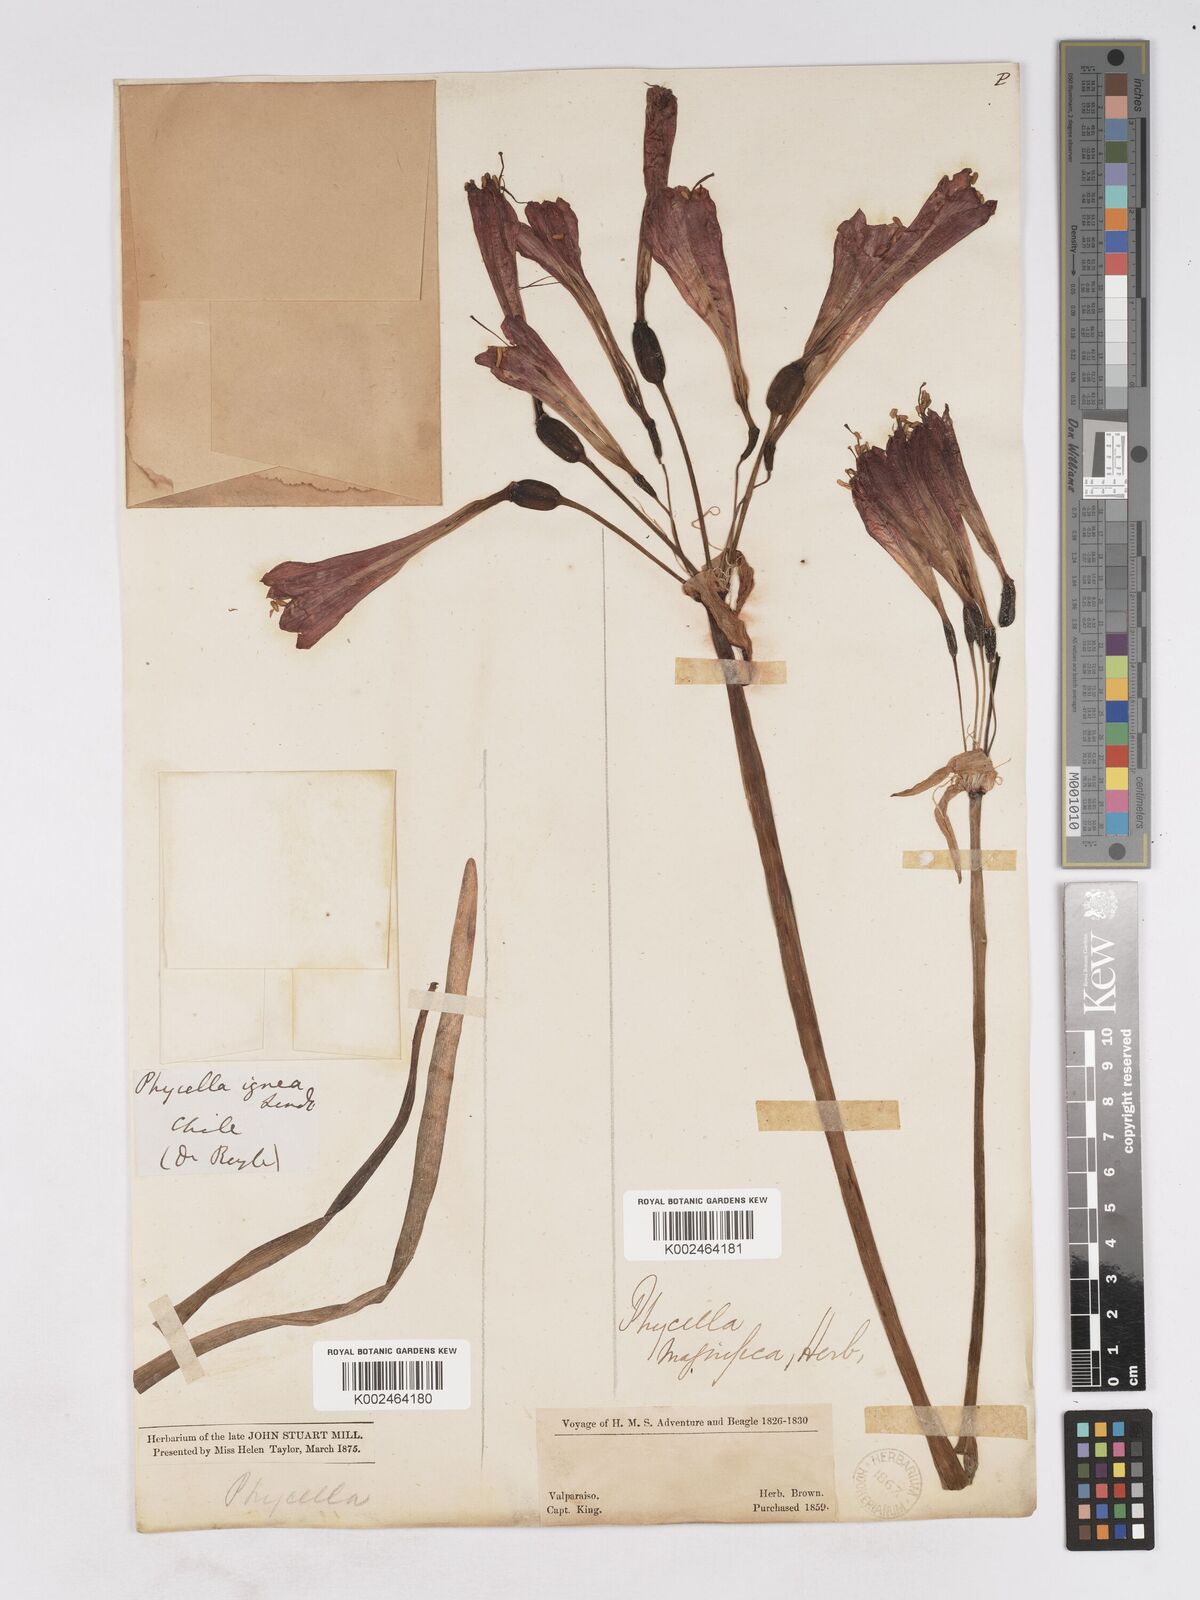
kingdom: Plantae
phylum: Tracheophyta
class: Liliopsida
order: Asparagales
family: Amaryllidaceae
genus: Phycella
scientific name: Phycella cyrtanthoides
